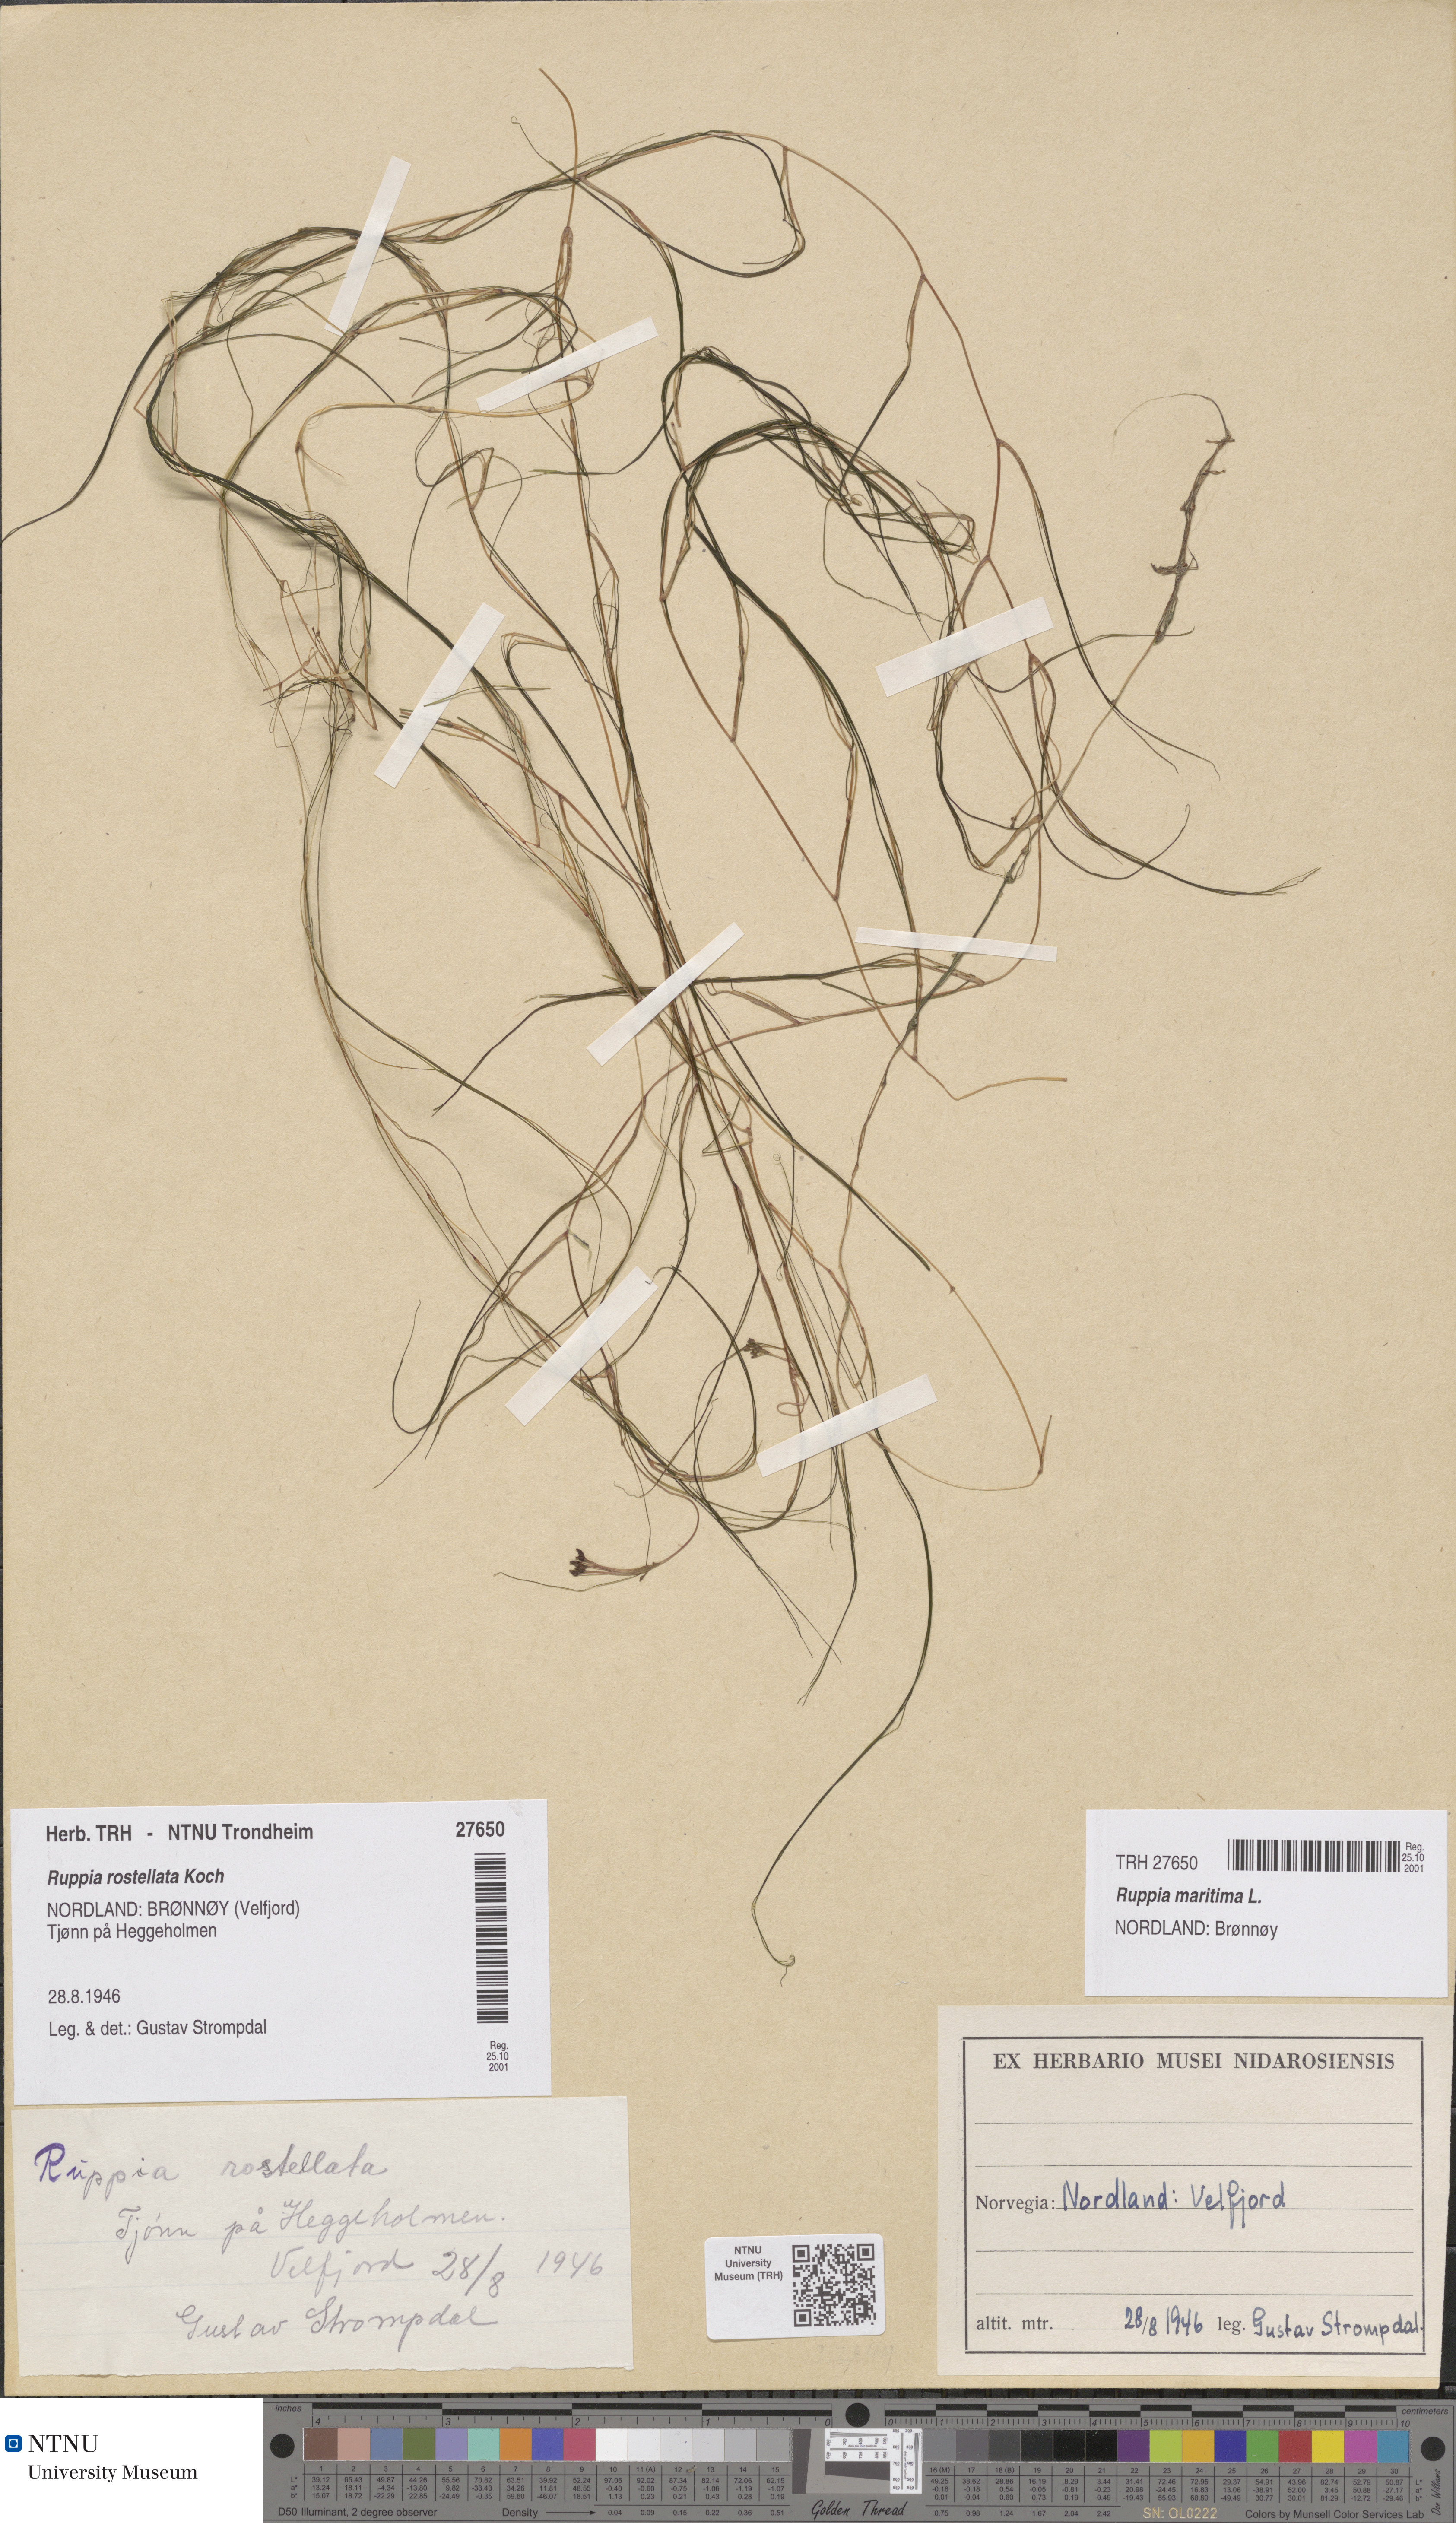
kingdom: Plantae
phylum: Tracheophyta
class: Liliopsida
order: Alismatales
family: Ruppiaceae
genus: Ruppia
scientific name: Ruppia maritima
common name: Beaked tasselweed
